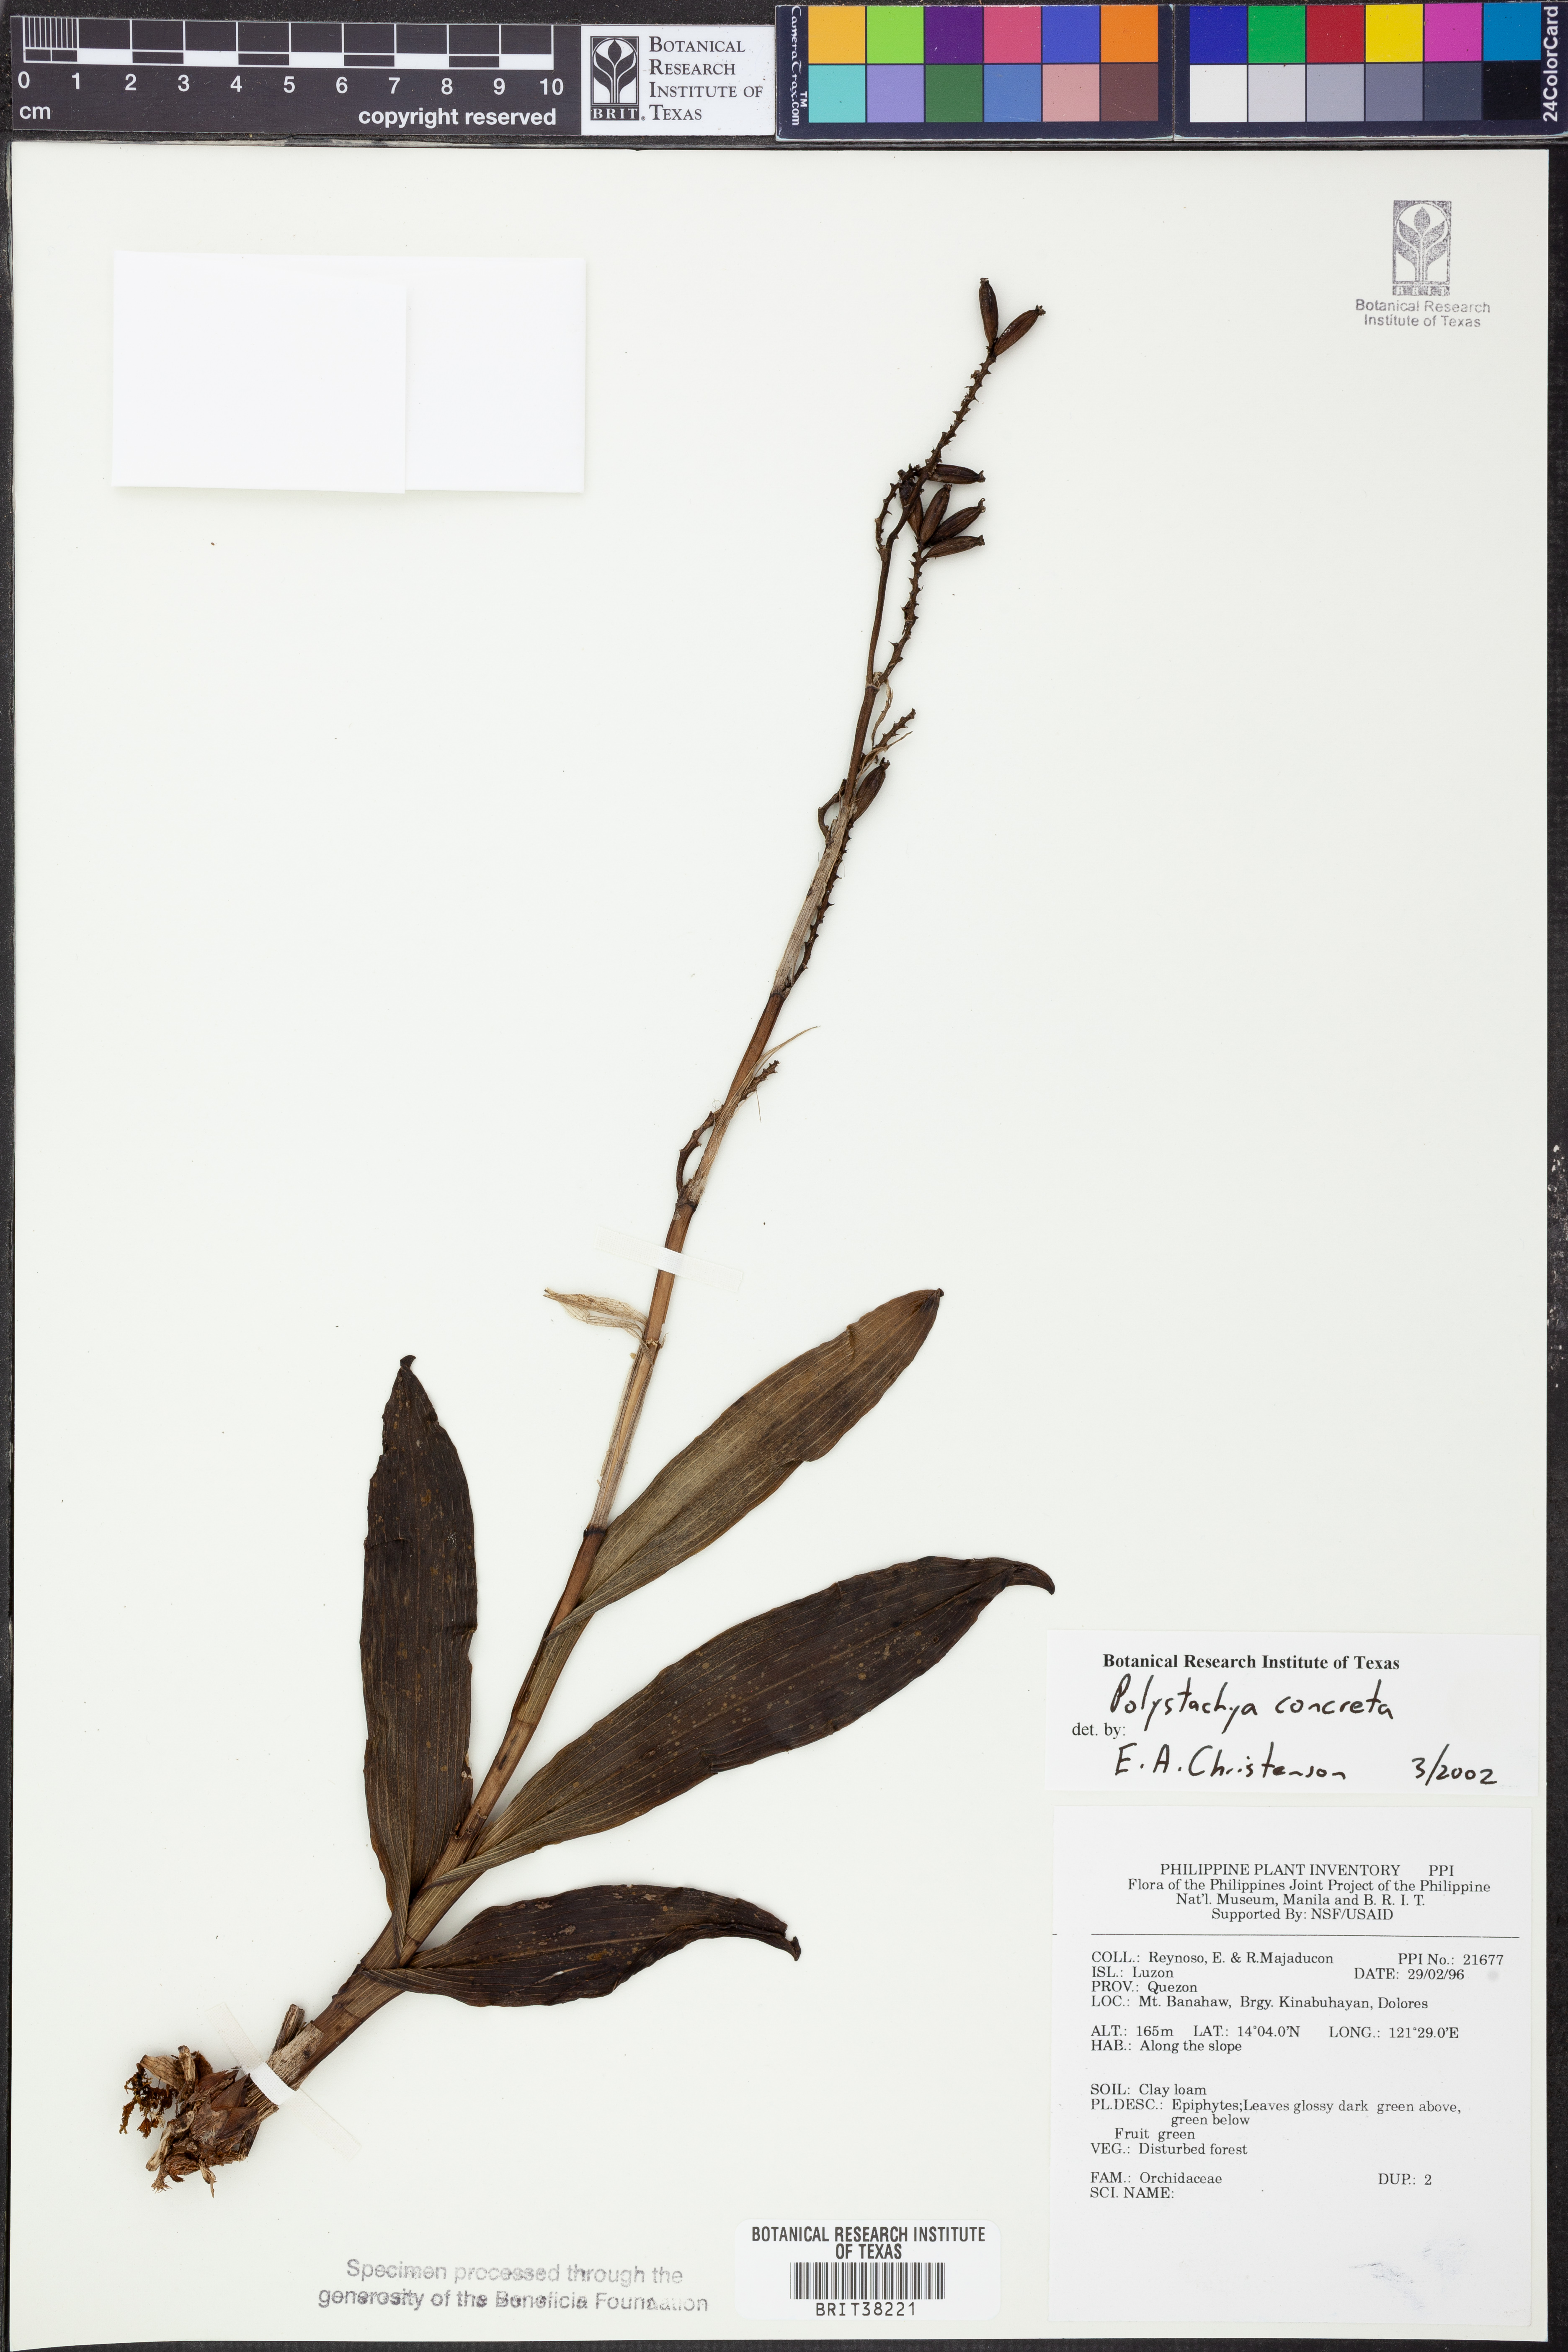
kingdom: Plantae
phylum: Tracheophyta
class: Liliopsida
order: Asparagales
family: Orchidaceae
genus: Polystachya
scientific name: Polystachya concreta
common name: Greater yellowspike orchid
